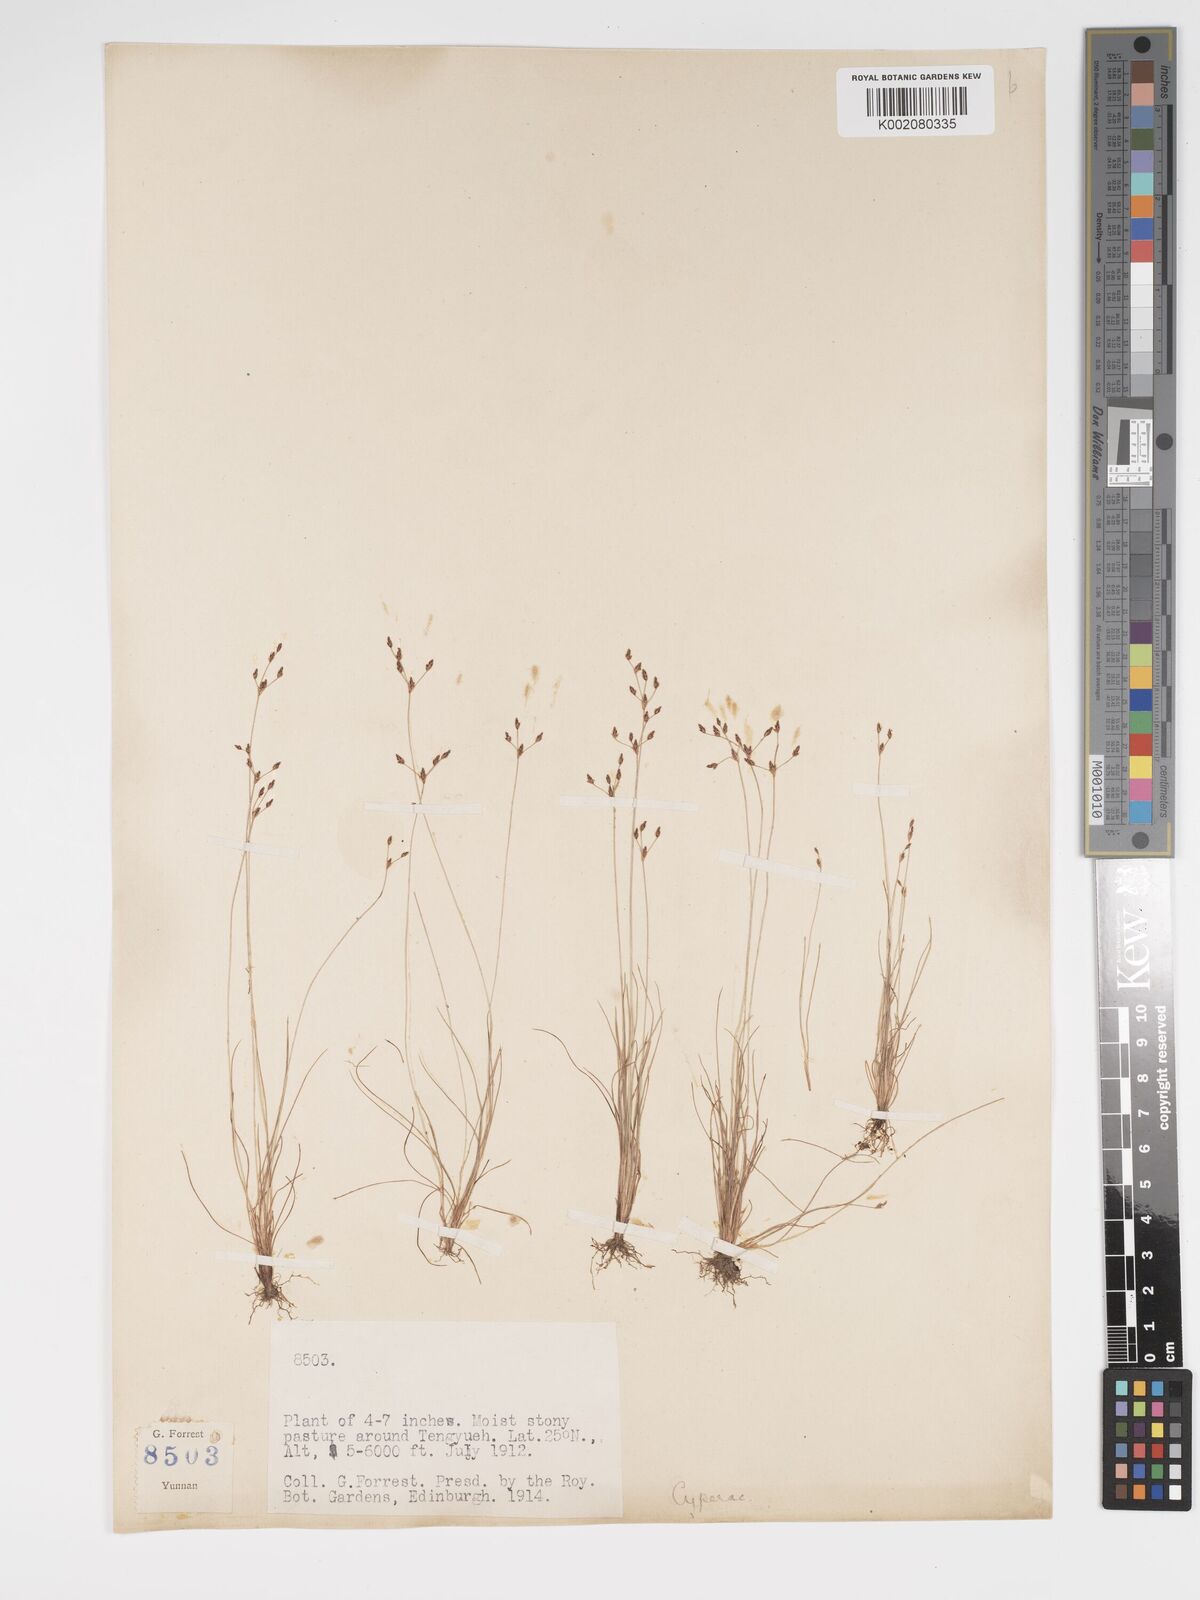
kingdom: Plantae
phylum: Tracheophyta
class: Liliopsida
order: Poales
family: Cyperaceae
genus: Bulbostylis
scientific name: Bulbostylis capillaris
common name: Densetuft hairsedge
